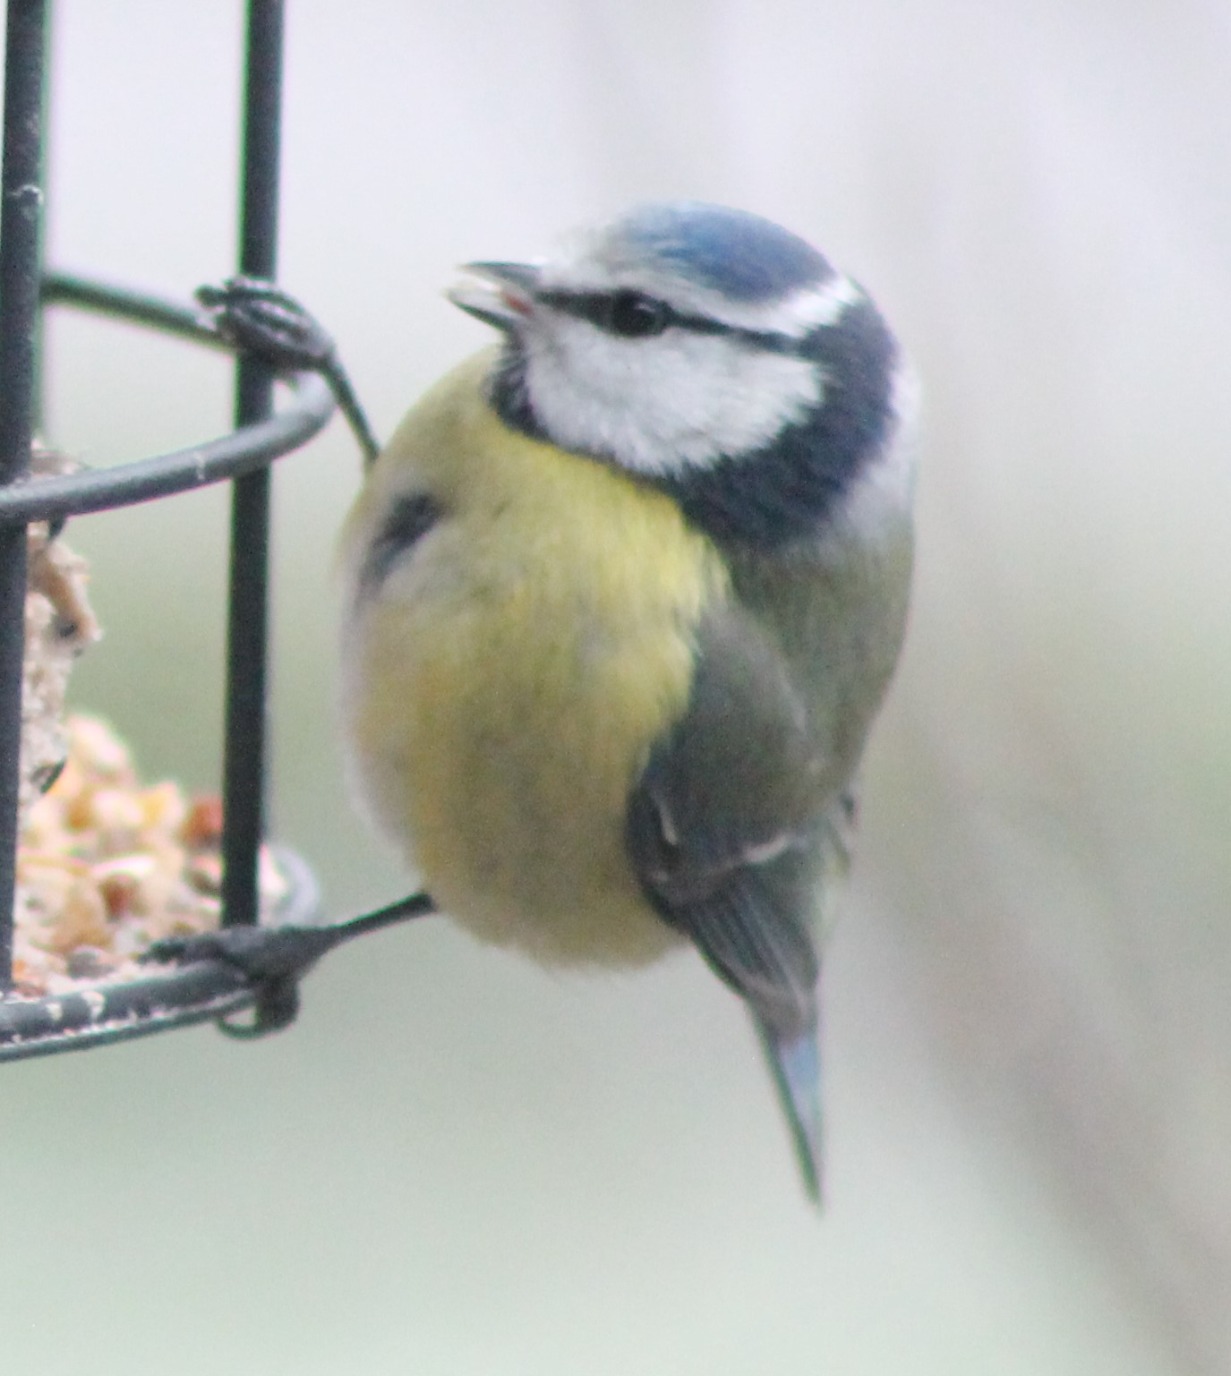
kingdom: Animalia
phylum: Chordata
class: Aves
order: Passeriformes
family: Paridae
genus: Cyanistes
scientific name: Cyanistes caeruleus
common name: Blåmejse
